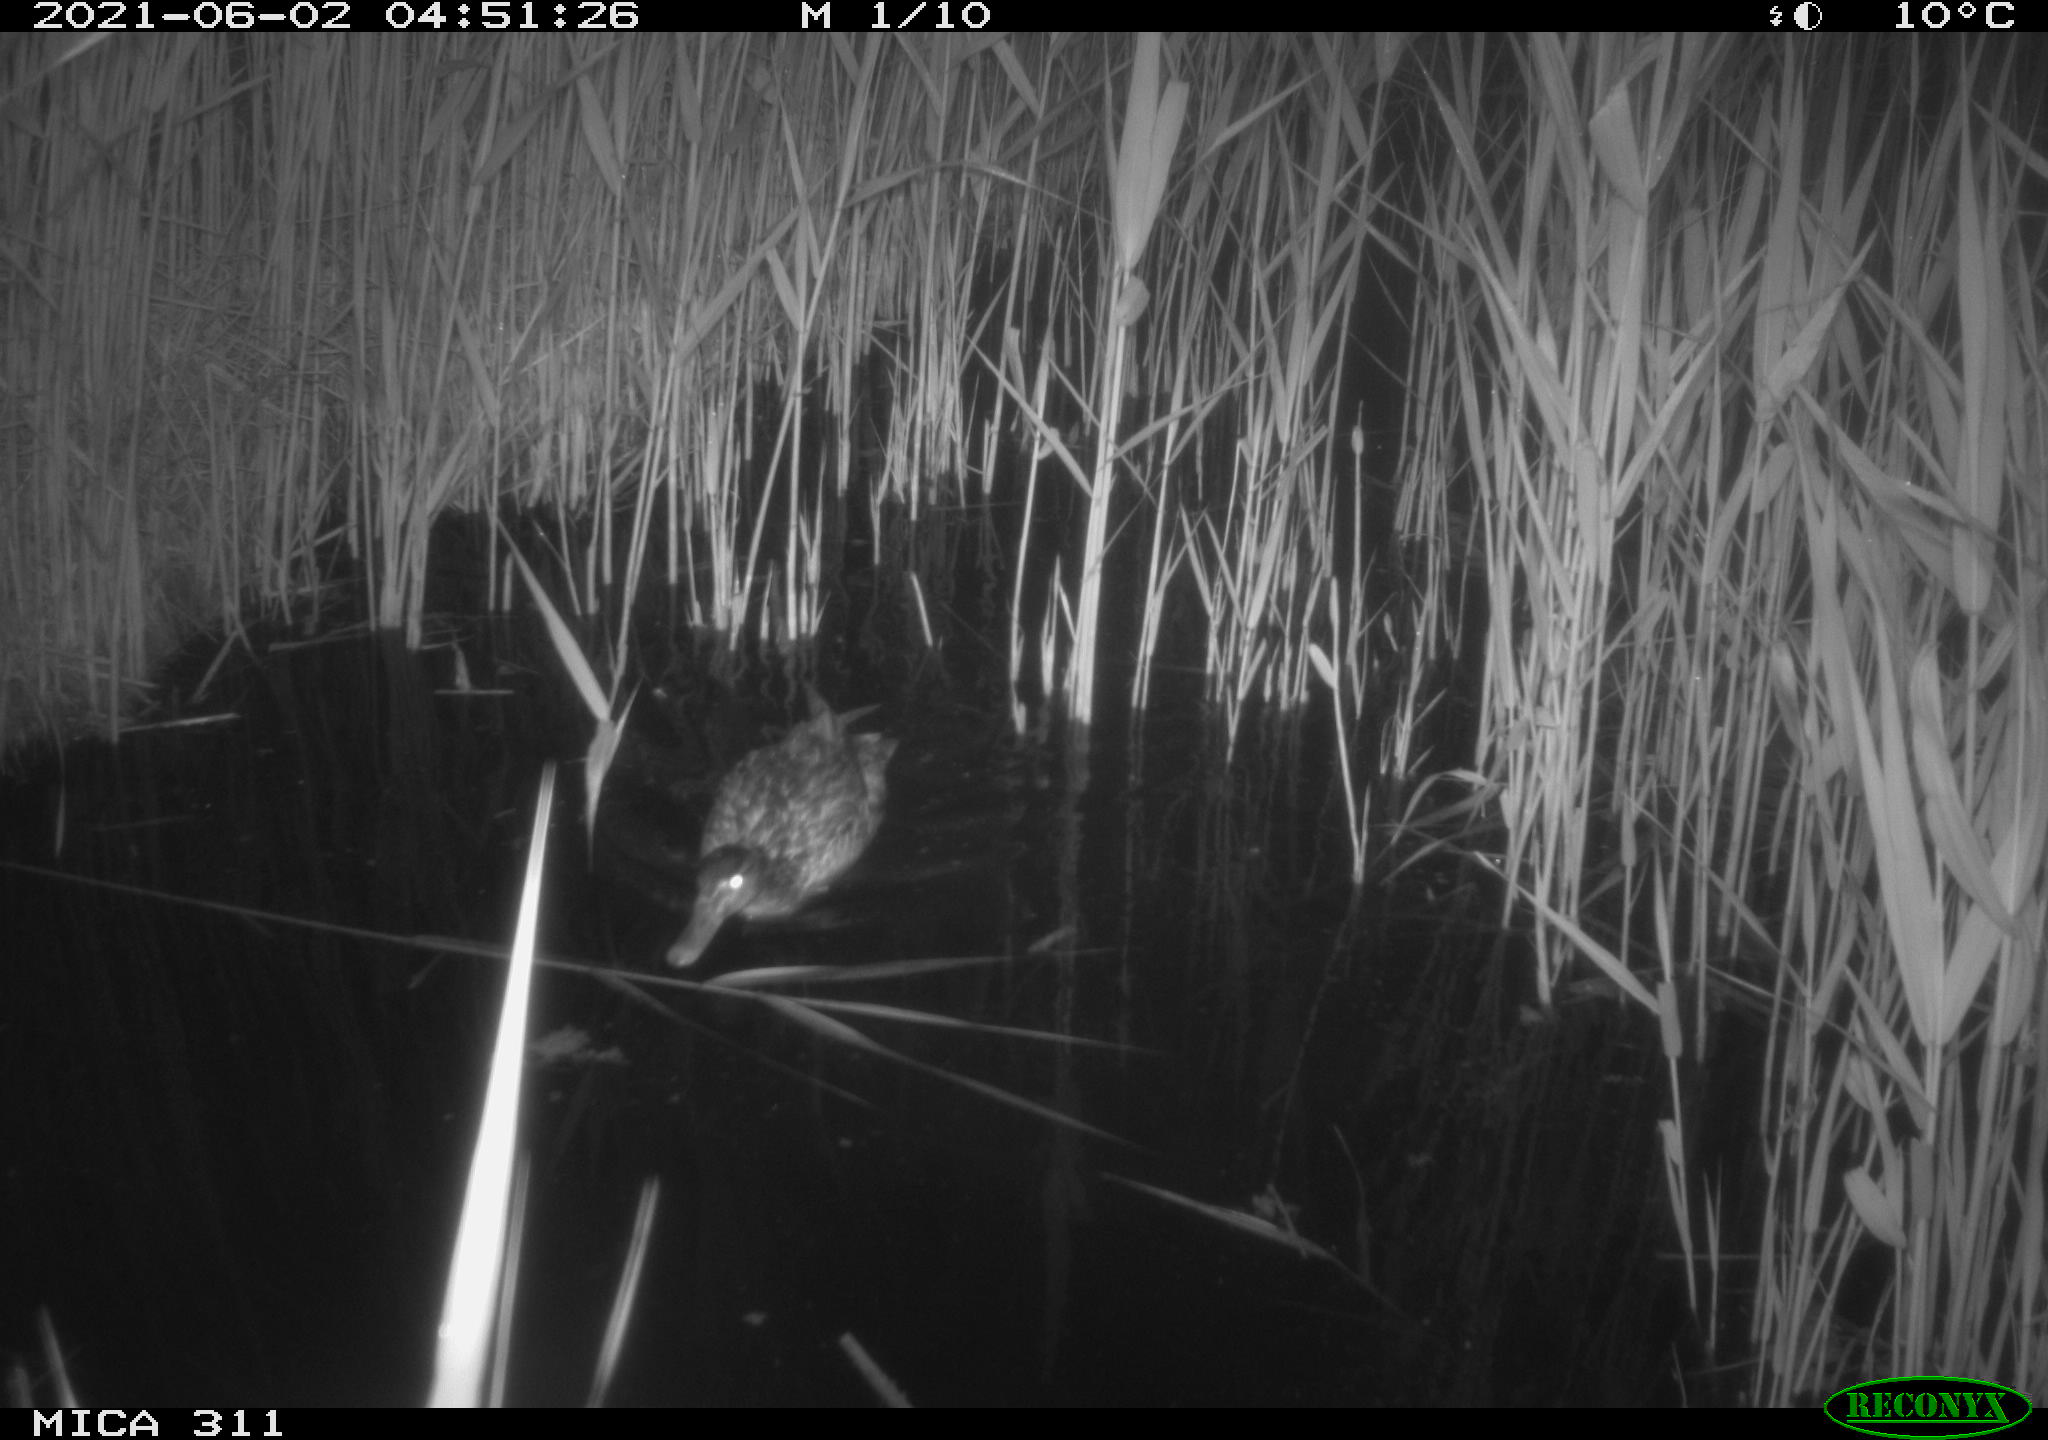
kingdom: Animalia
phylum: Chordata
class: Aves
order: Anseriformes
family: Anatidae
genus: Anas
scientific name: Anas platyrhynchos
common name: Mallard
